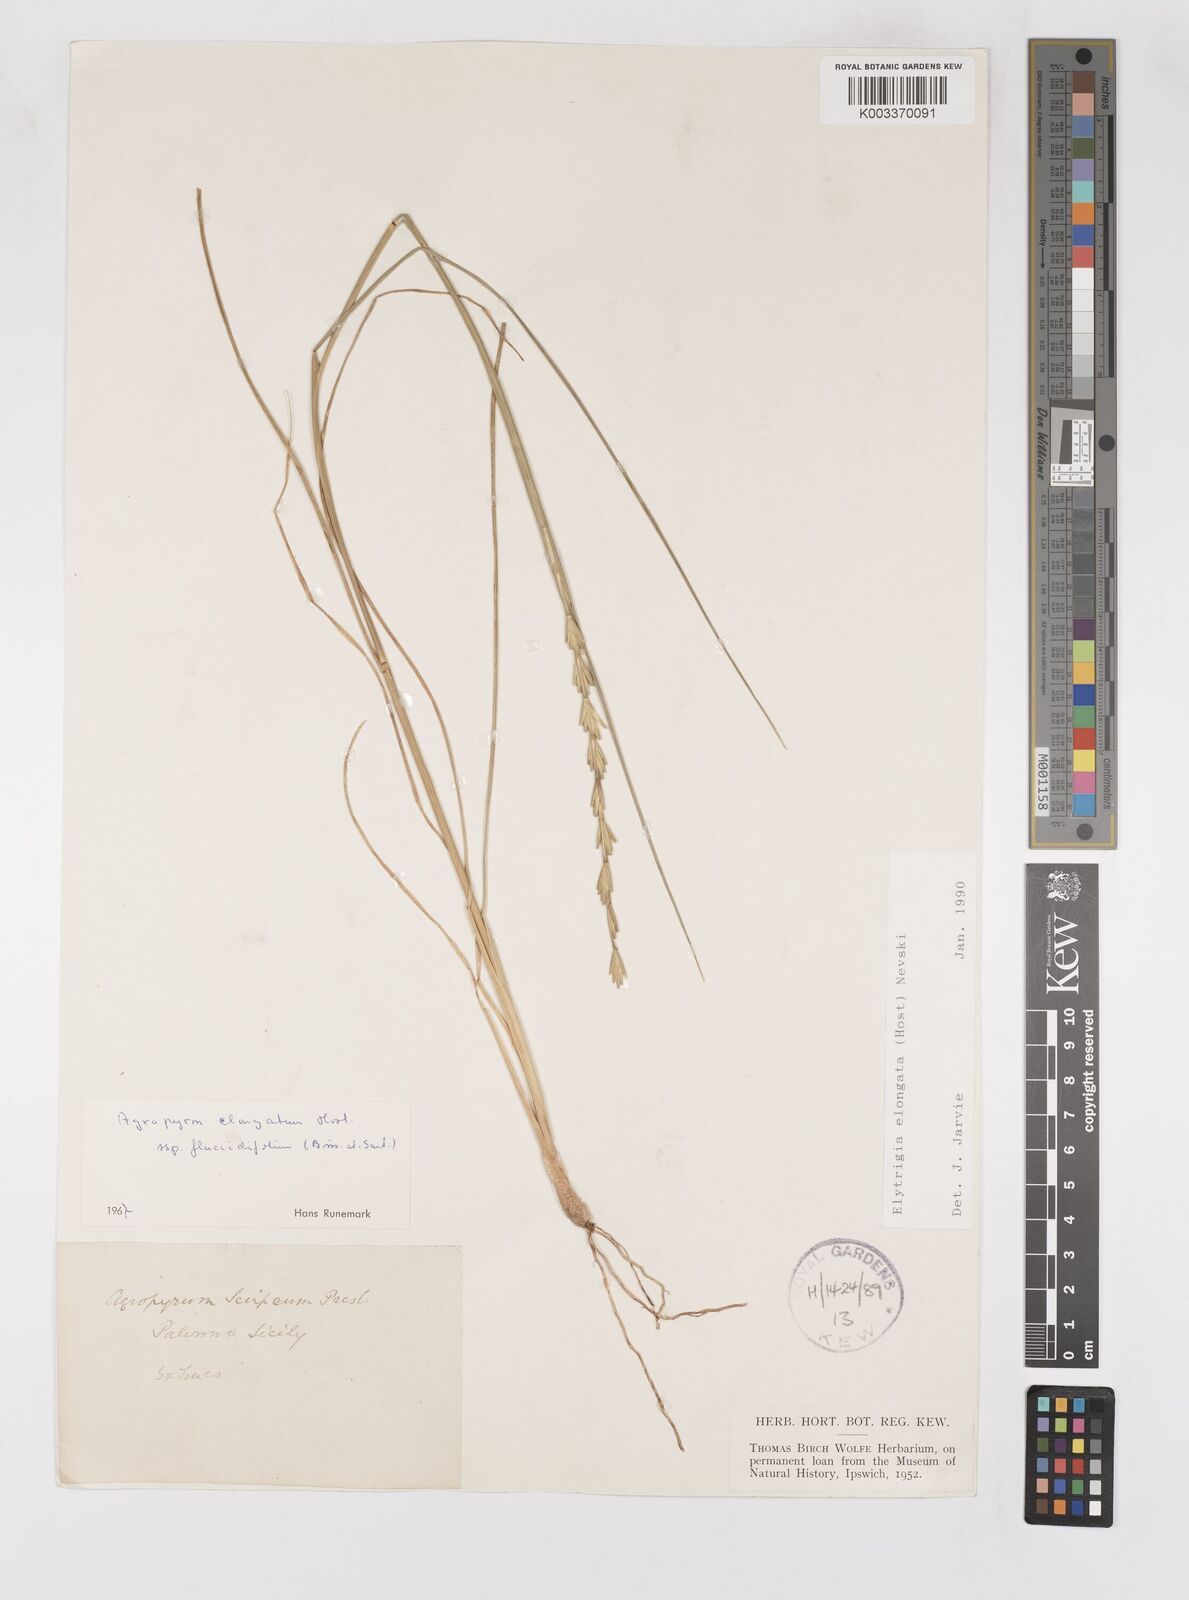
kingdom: Plantae
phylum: Tracheophyta
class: Liliopsida
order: Poales
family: Poaceae
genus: Thinopyrum
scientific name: Thinopyrum elongatum
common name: Tall wheatgrass
